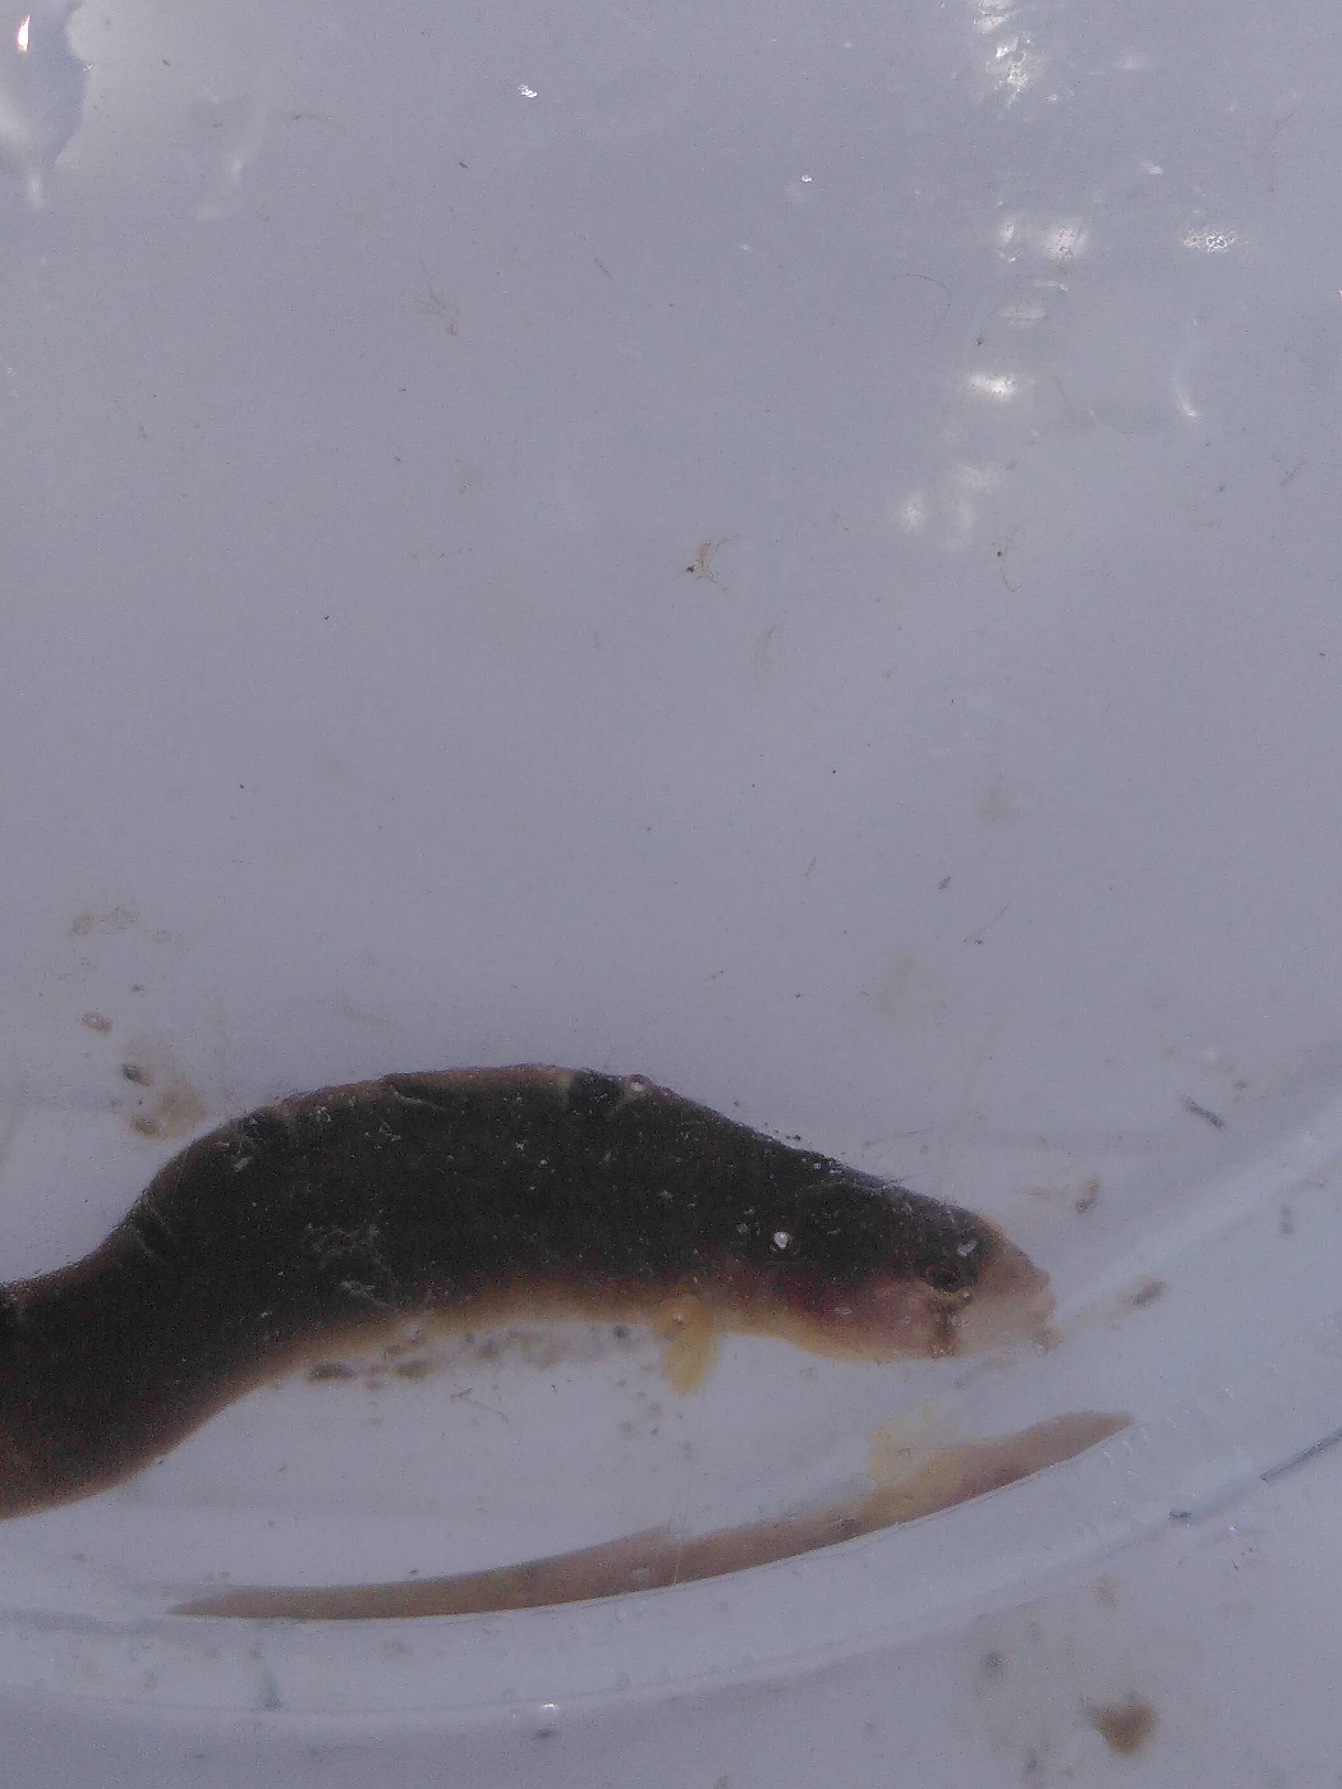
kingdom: Animalia
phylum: Chordata
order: Perciformes
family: Pholidae
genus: Pholis
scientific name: Pholis gunnellus
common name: Tangspræl
